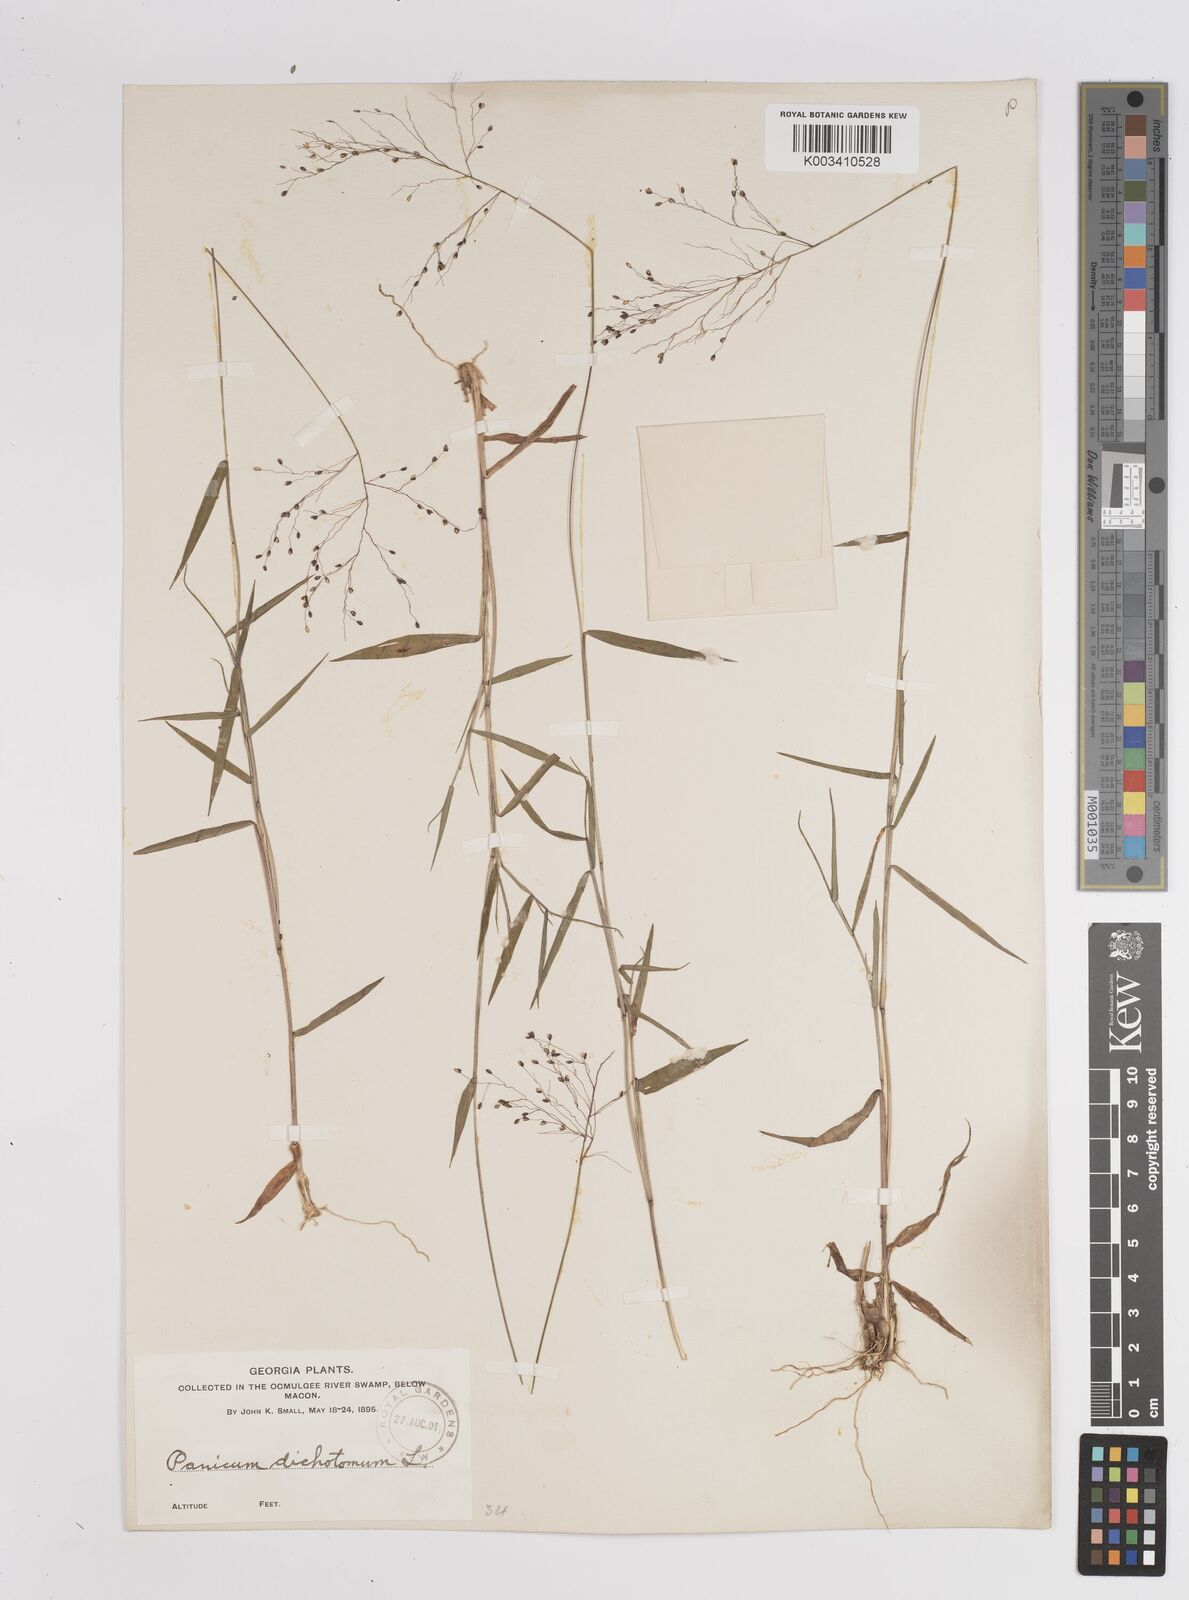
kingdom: Plantae
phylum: Tracheophyta
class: Liliopsida
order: Poales
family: Poaceae
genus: Dichanthelium
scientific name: Dichanthelium polyanthes
